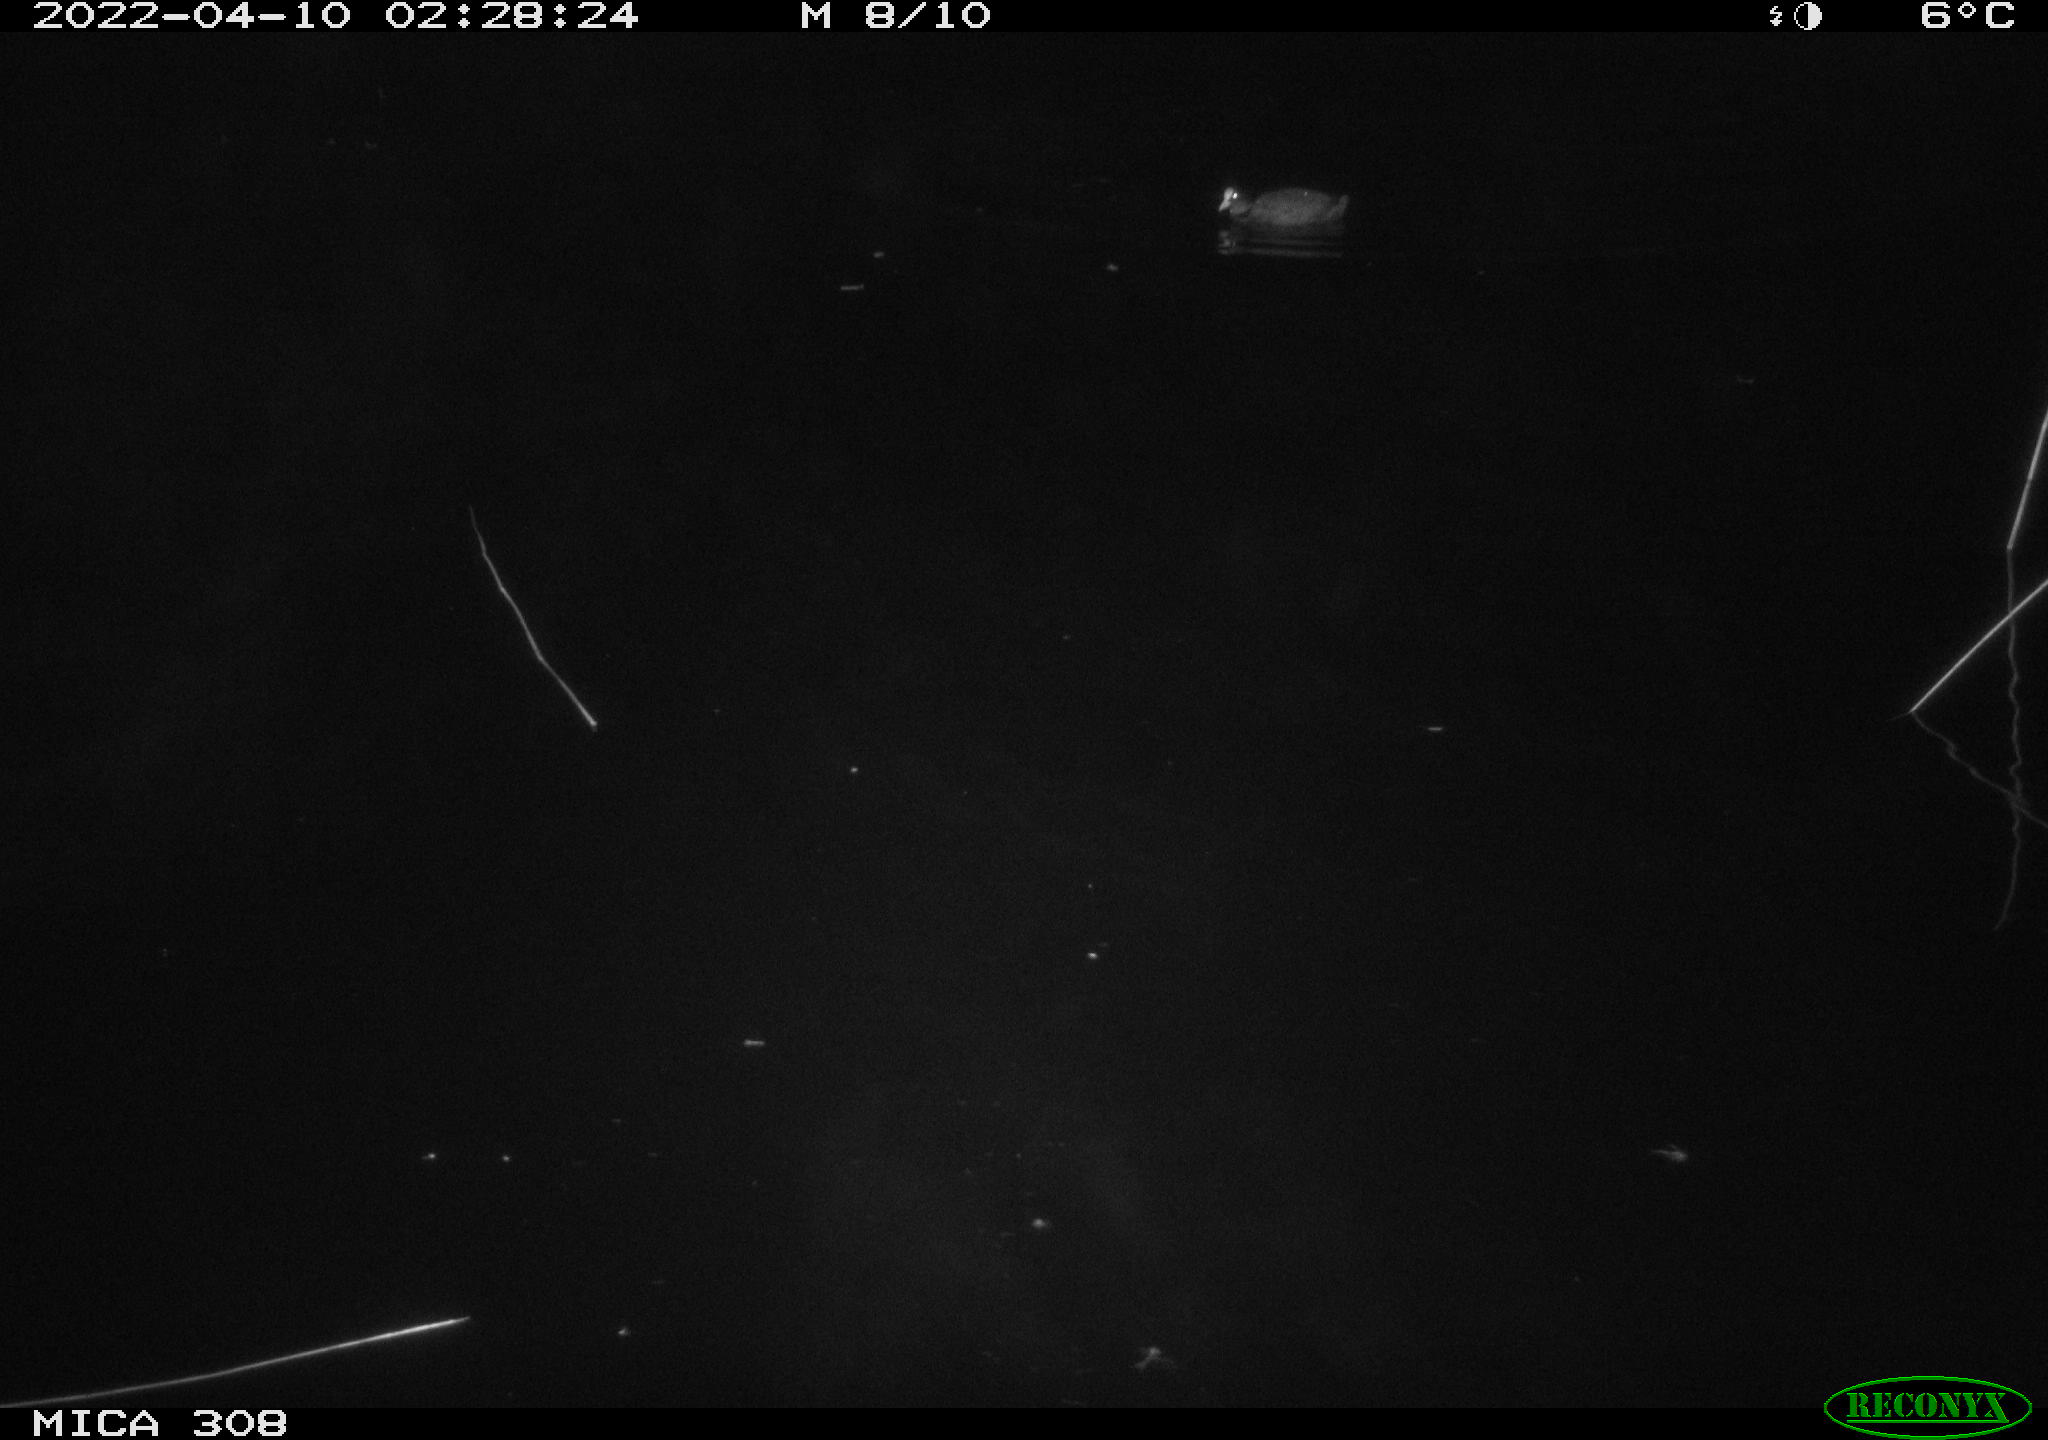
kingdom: Animalia
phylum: Chordata
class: Aves
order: Gruiformes
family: Rallidae
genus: Gallinula
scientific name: Gallinula chloropus
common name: Common moorhen
